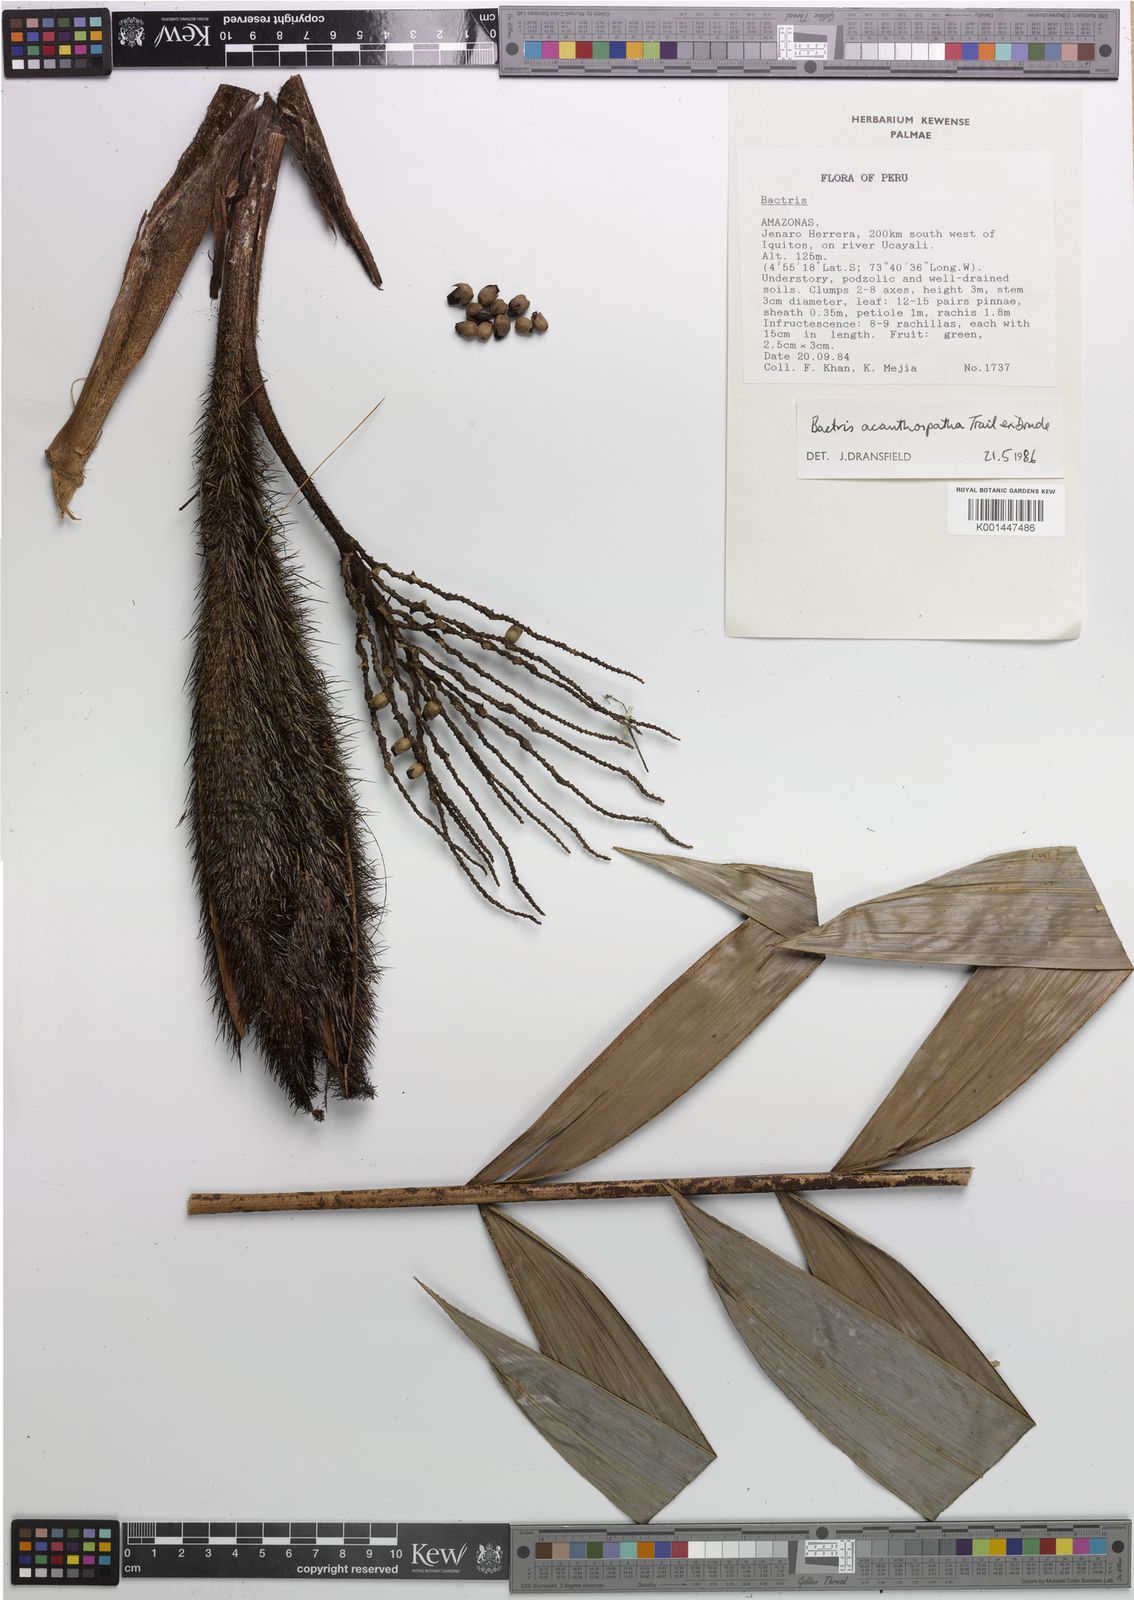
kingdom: Plantae
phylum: Tracheophyta
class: Liliopsida
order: Arecales
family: Arecaceae
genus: Bactris
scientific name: Bactris macroacantha
